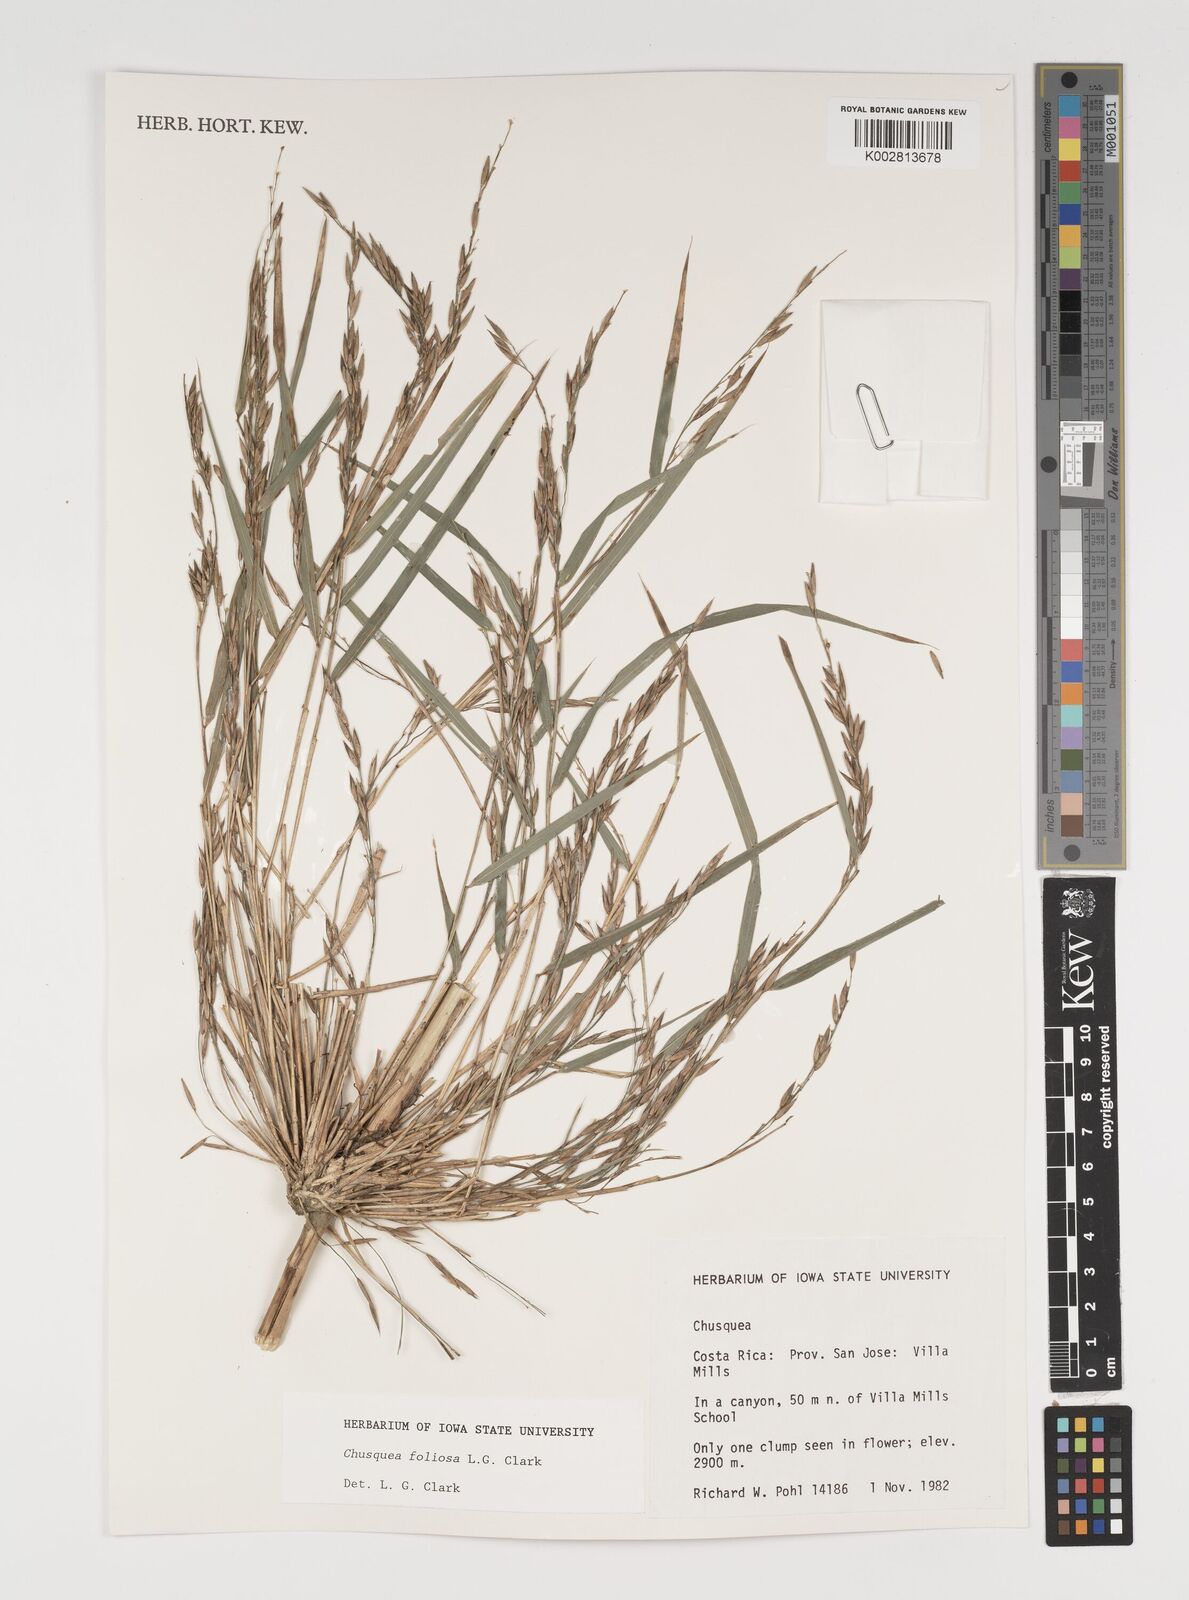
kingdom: Plantae
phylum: Tracheophyta
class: Liliopsida
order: Poales
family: Poaceae
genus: Chusquea
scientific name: Chusquea foliosa
